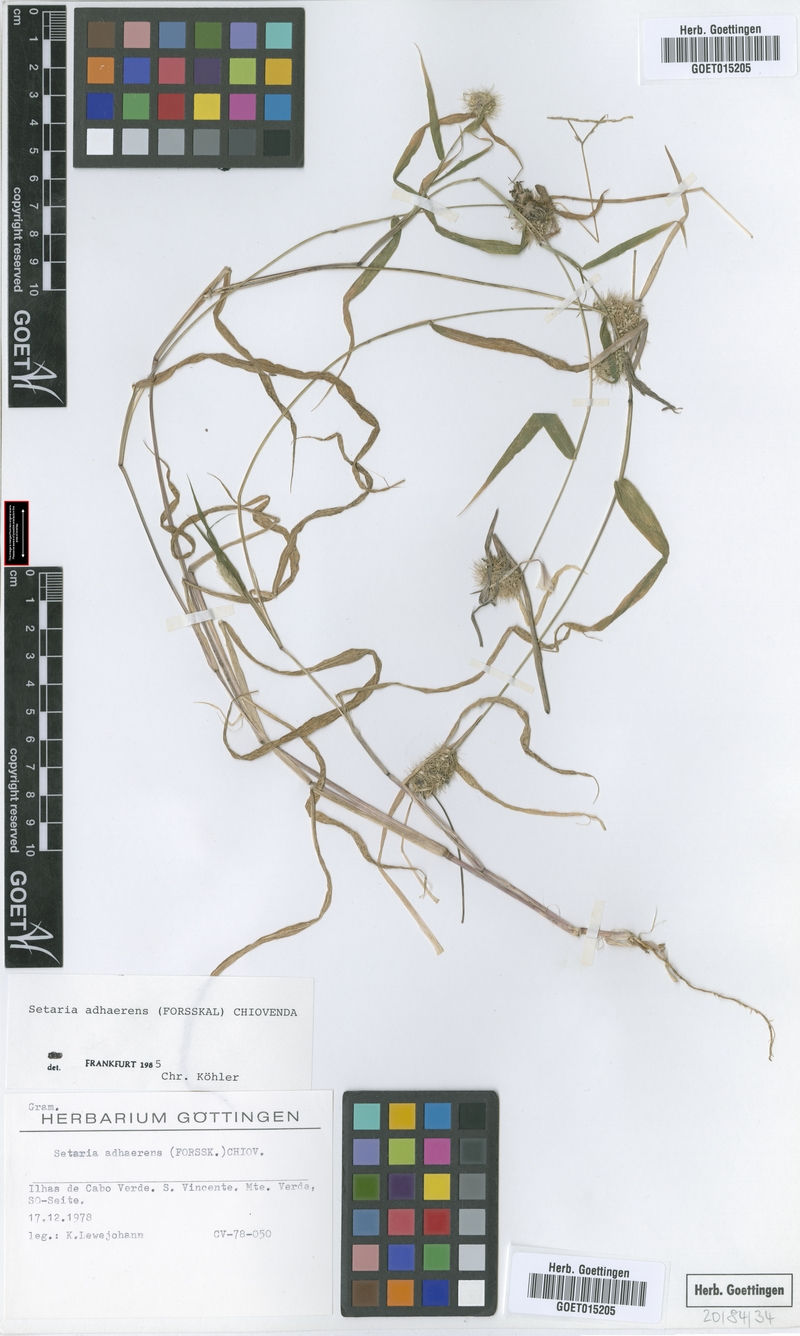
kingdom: Plantae
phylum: Tracheophyta
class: Liliopsida
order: Poales
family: Poaceae
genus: Setaria
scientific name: Setaria adhaerens
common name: Adherent bristle-grass
